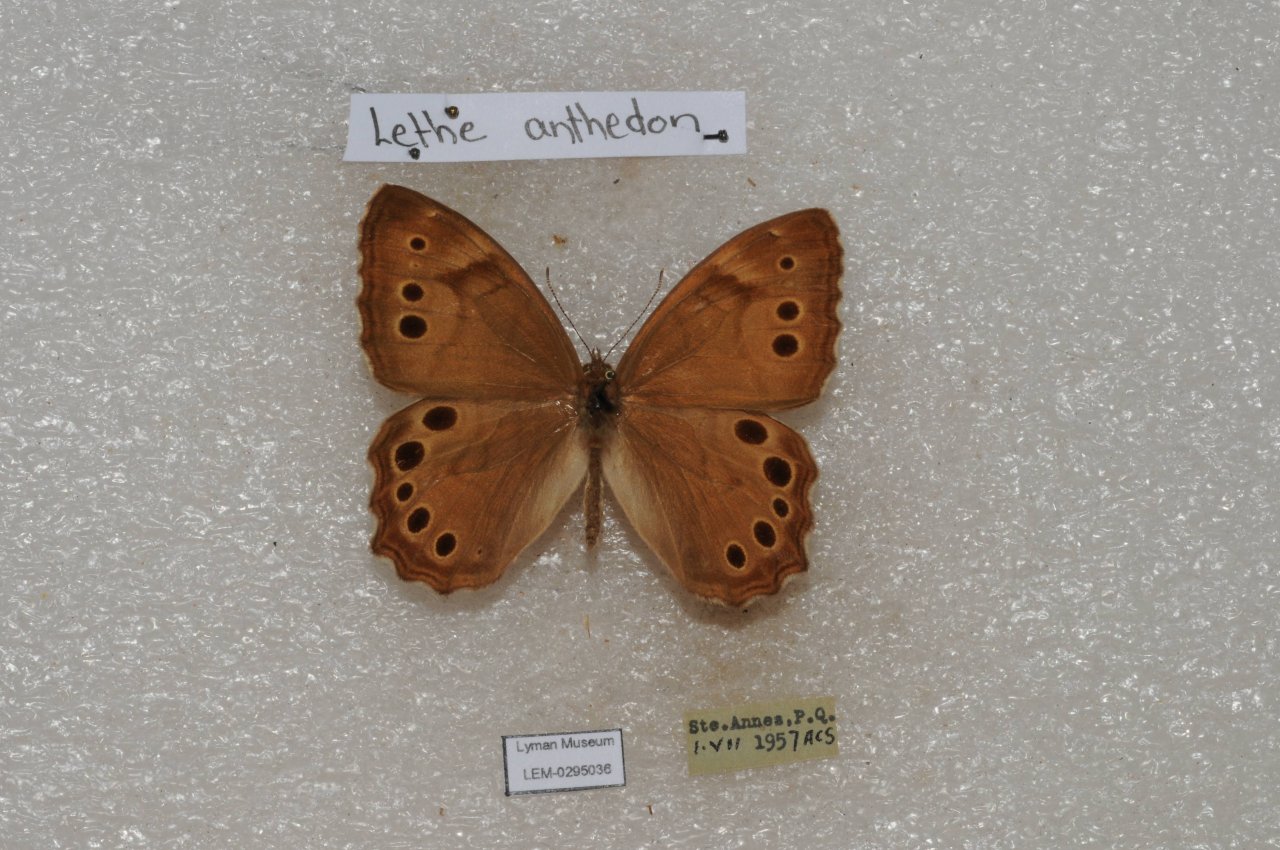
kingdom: Animalia
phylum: Arthropoda
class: Insecta
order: Lepidoptera
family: Nymphalidae
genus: Lethe
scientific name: Lethe anthedon
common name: Northern Pearly-Eye
